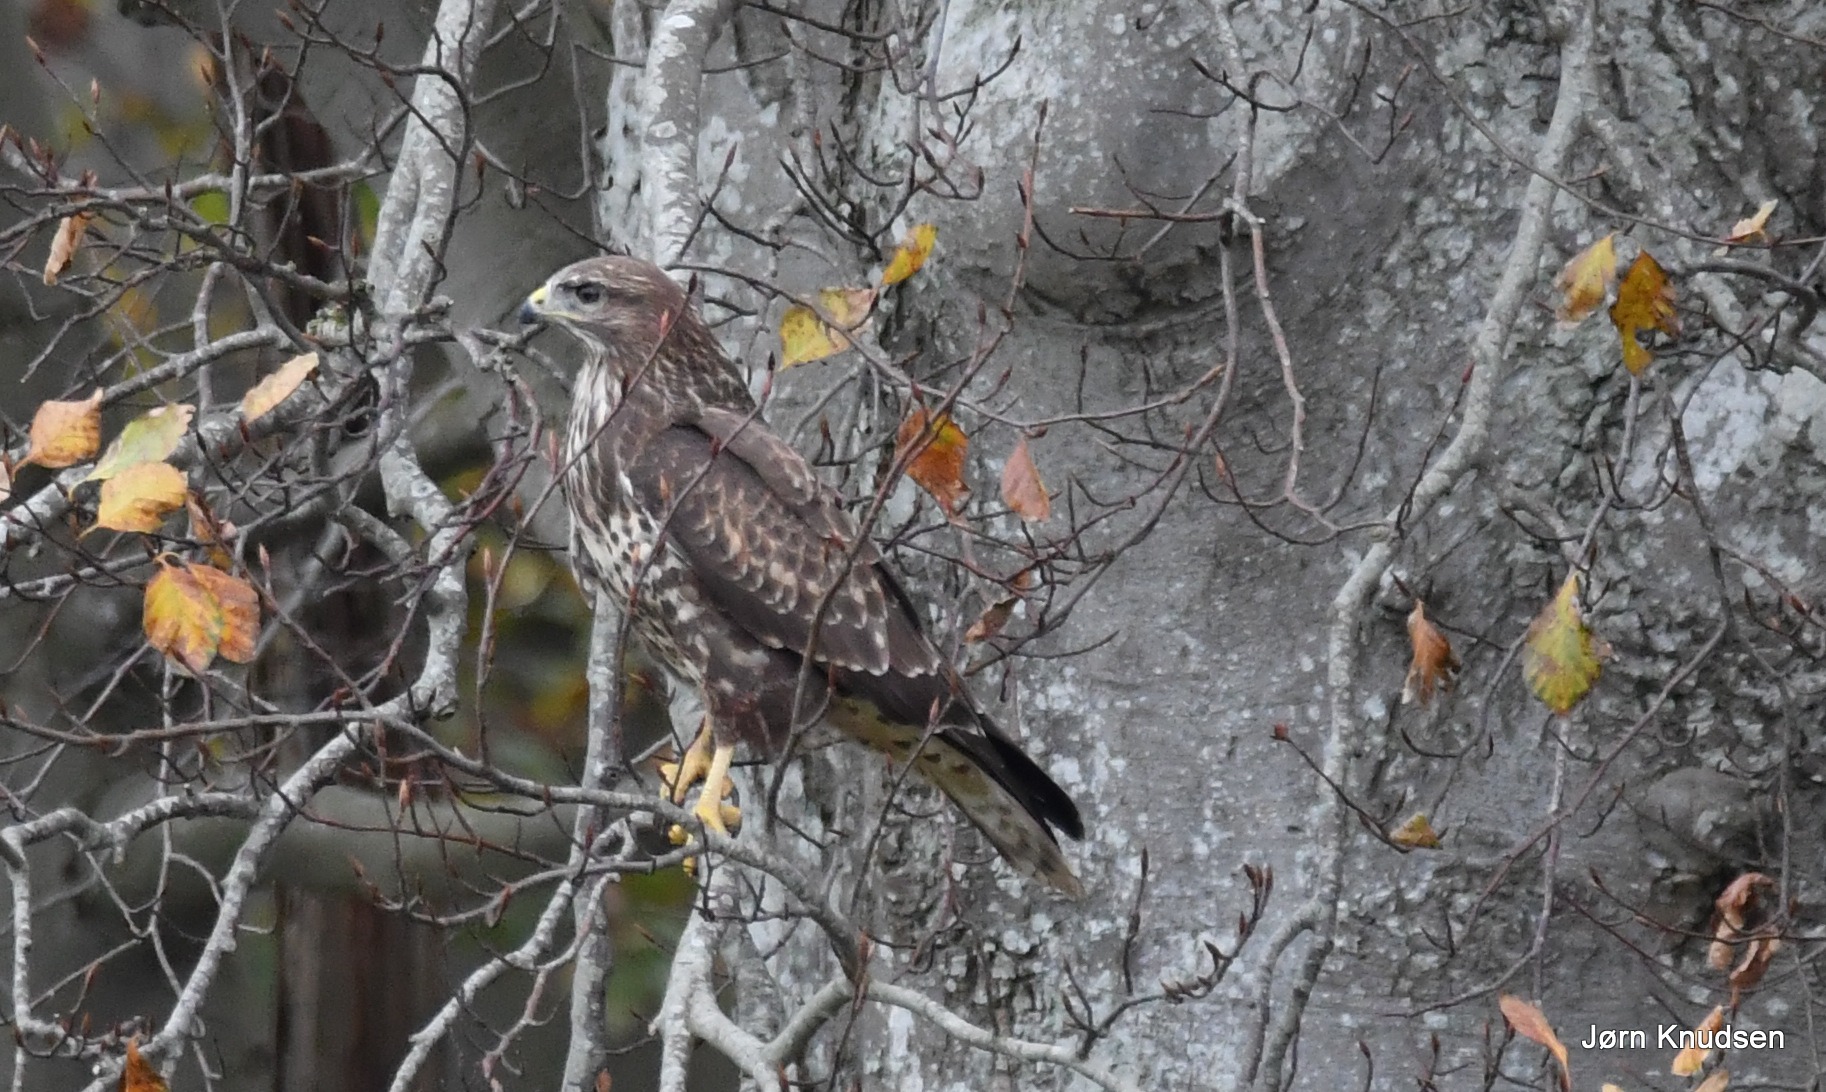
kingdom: Animalia
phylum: Chordata
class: Aves
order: Accipitriformes
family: Accipitridae
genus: Buteo
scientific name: Buteo buteo
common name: Musvåge
